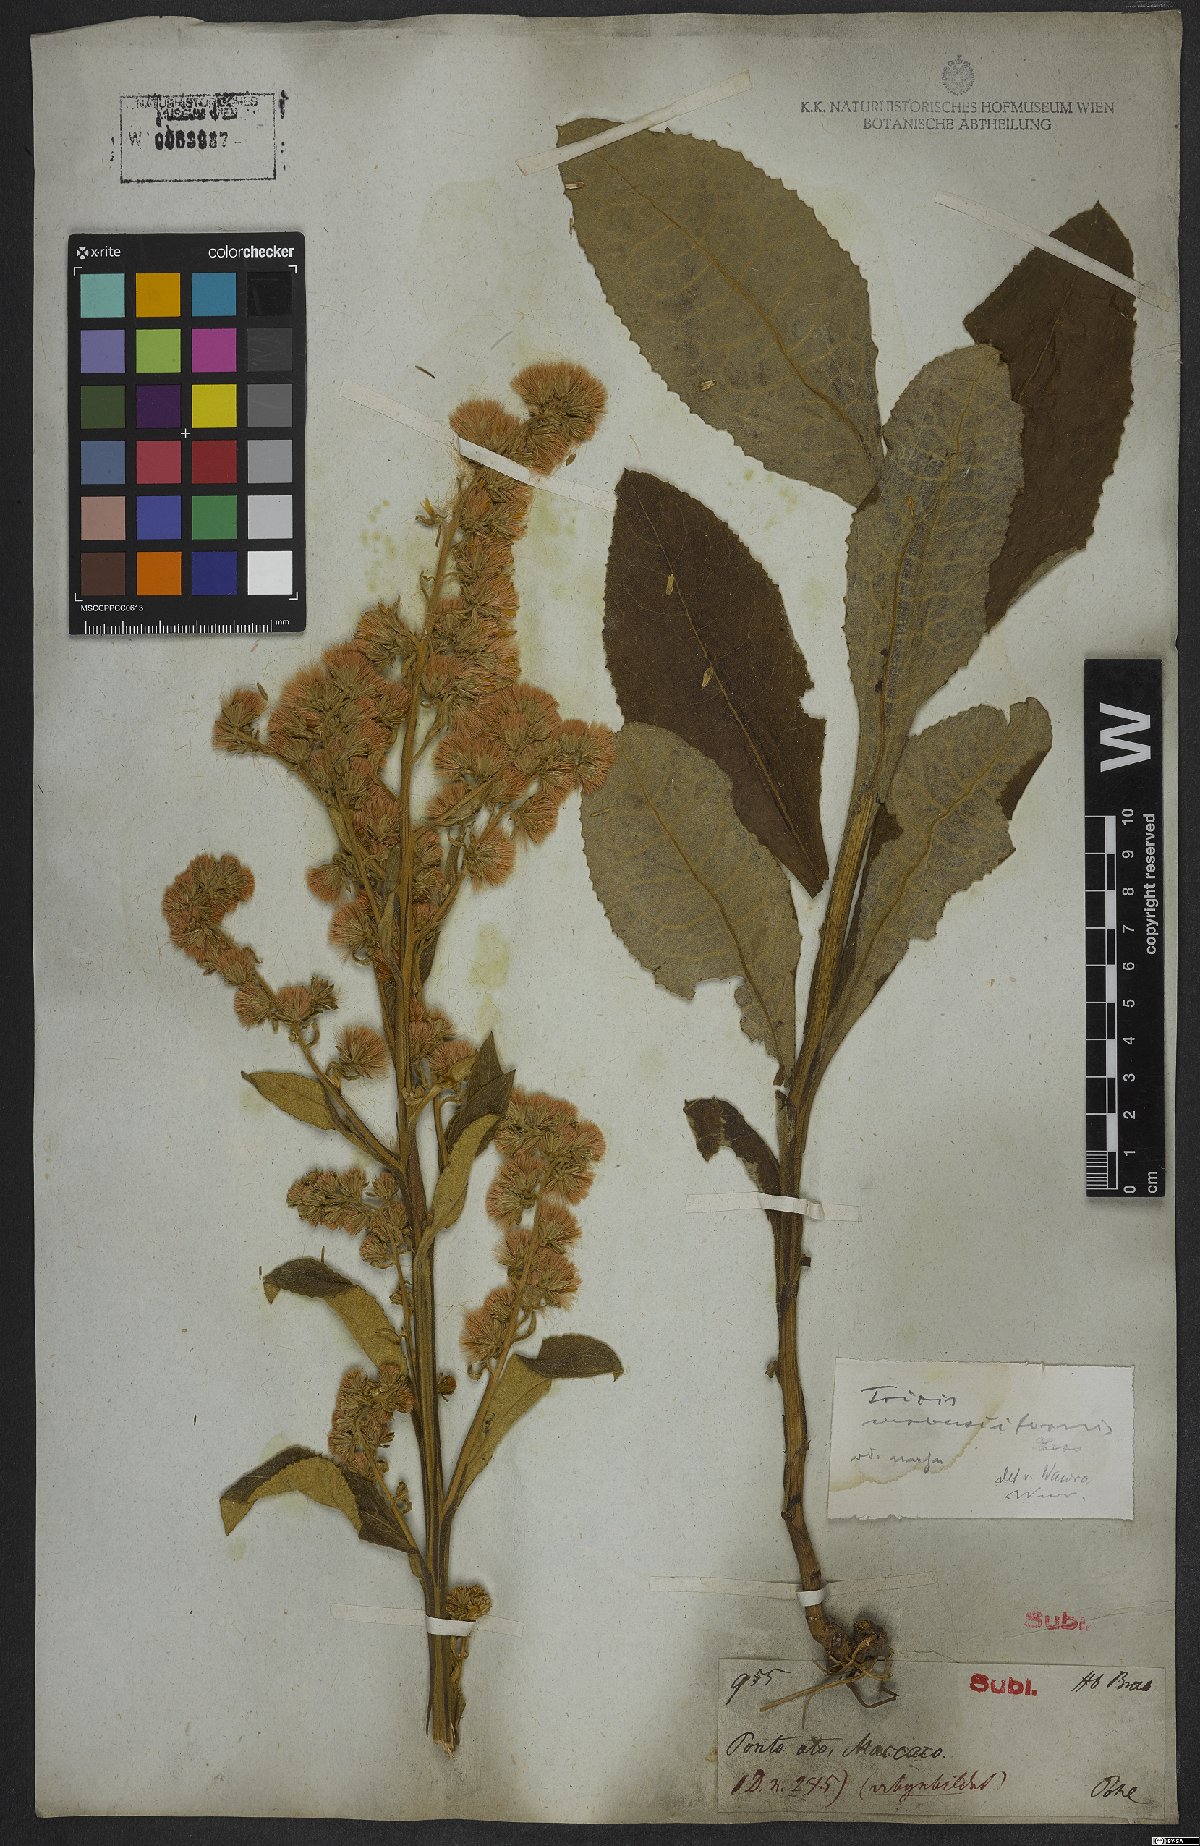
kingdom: Plantae
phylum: Tracheophyta
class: Magnoliopsida
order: Asterales
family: Asteraceae
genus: Trixis
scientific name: Trixis nobilis
